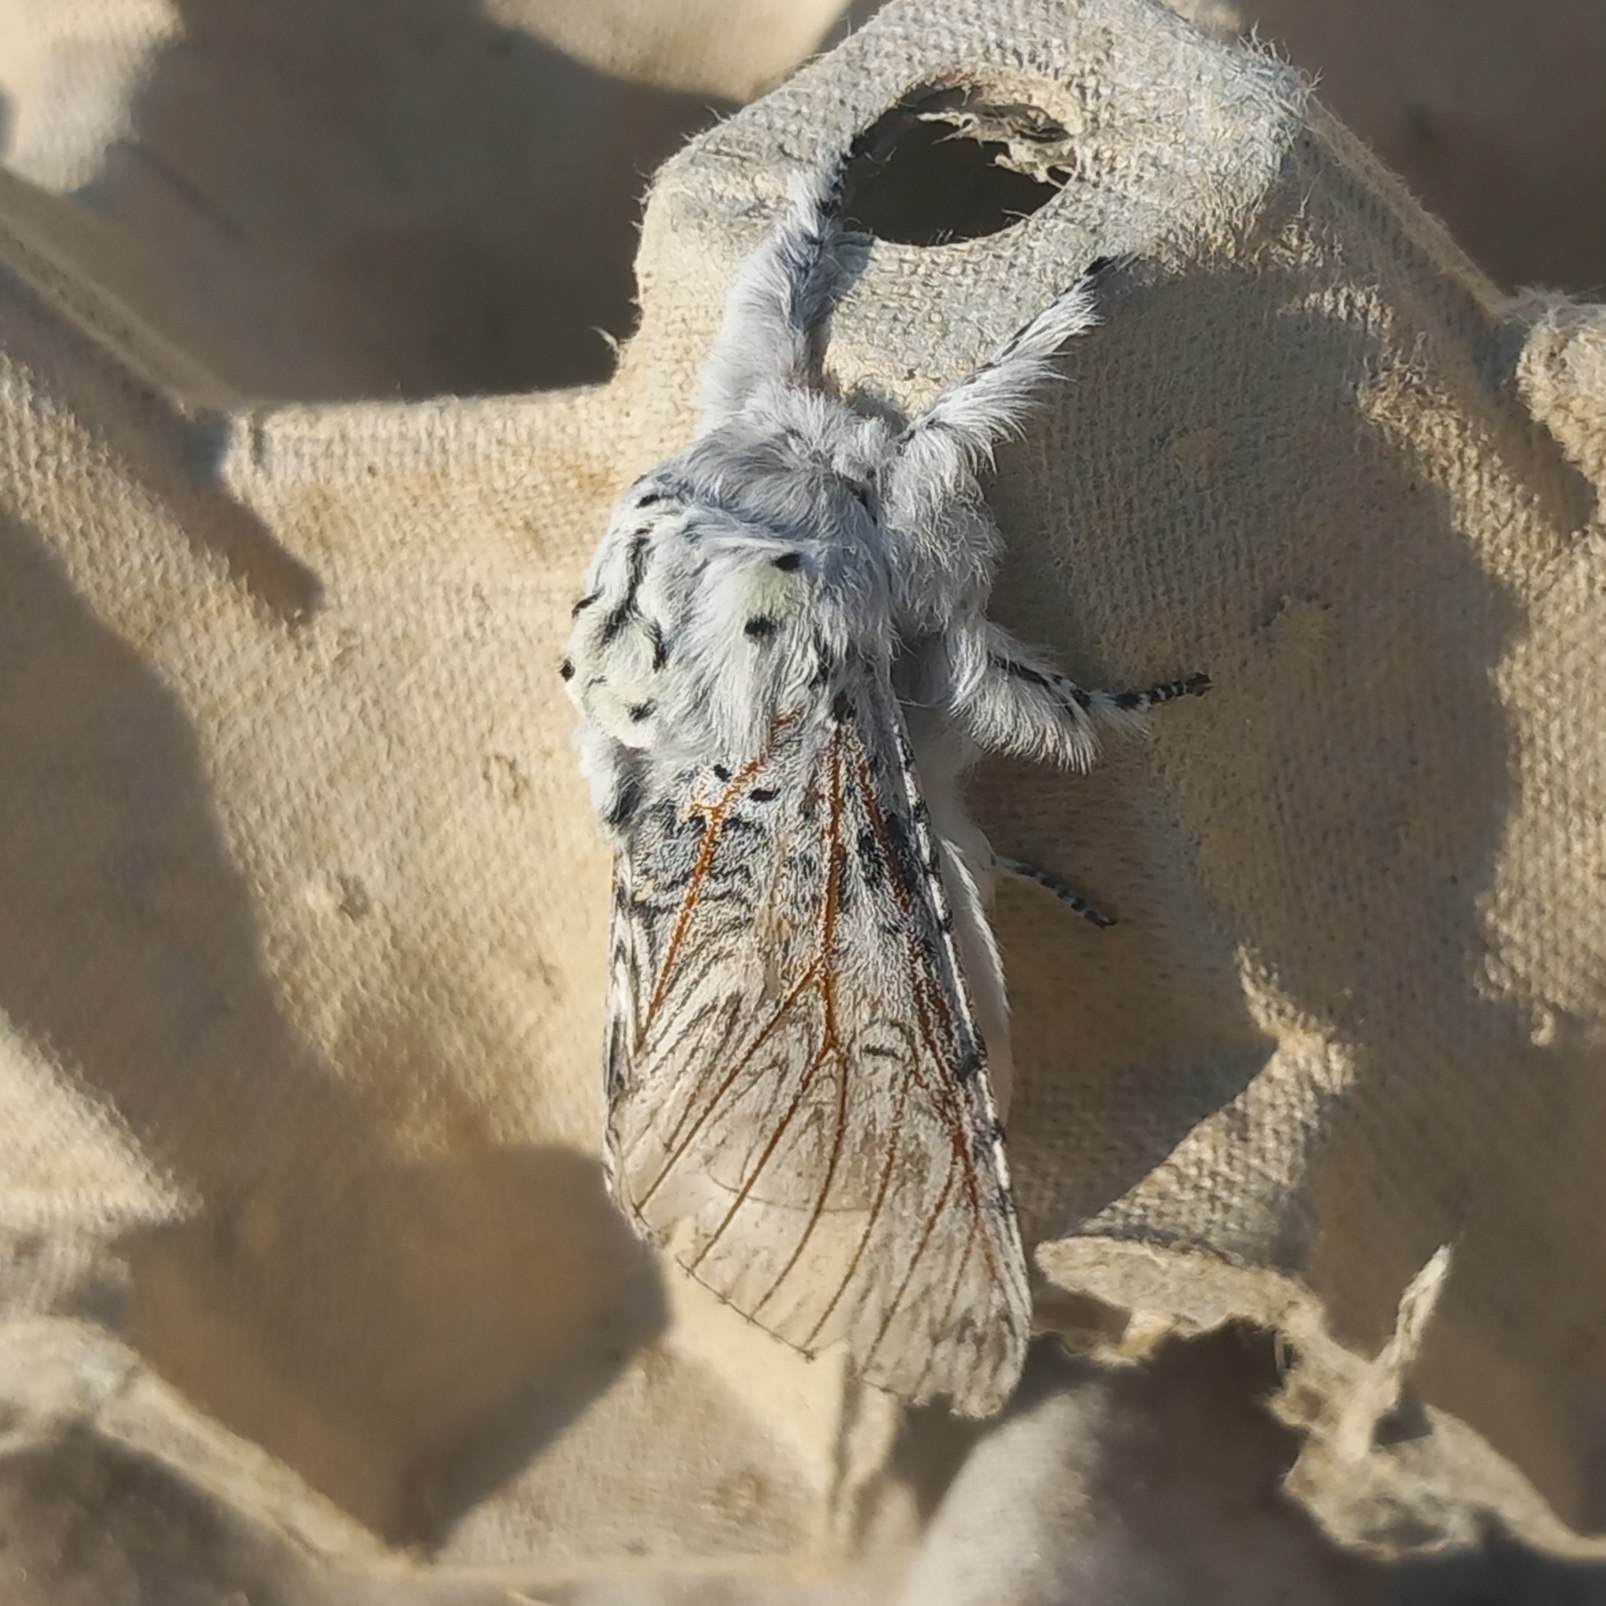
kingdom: Animalia
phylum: Arthropoda
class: Insecta
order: Lepidoptera
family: Notodontidae
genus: Cerura
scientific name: Cerura vinula
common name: Hermelinskåbe
